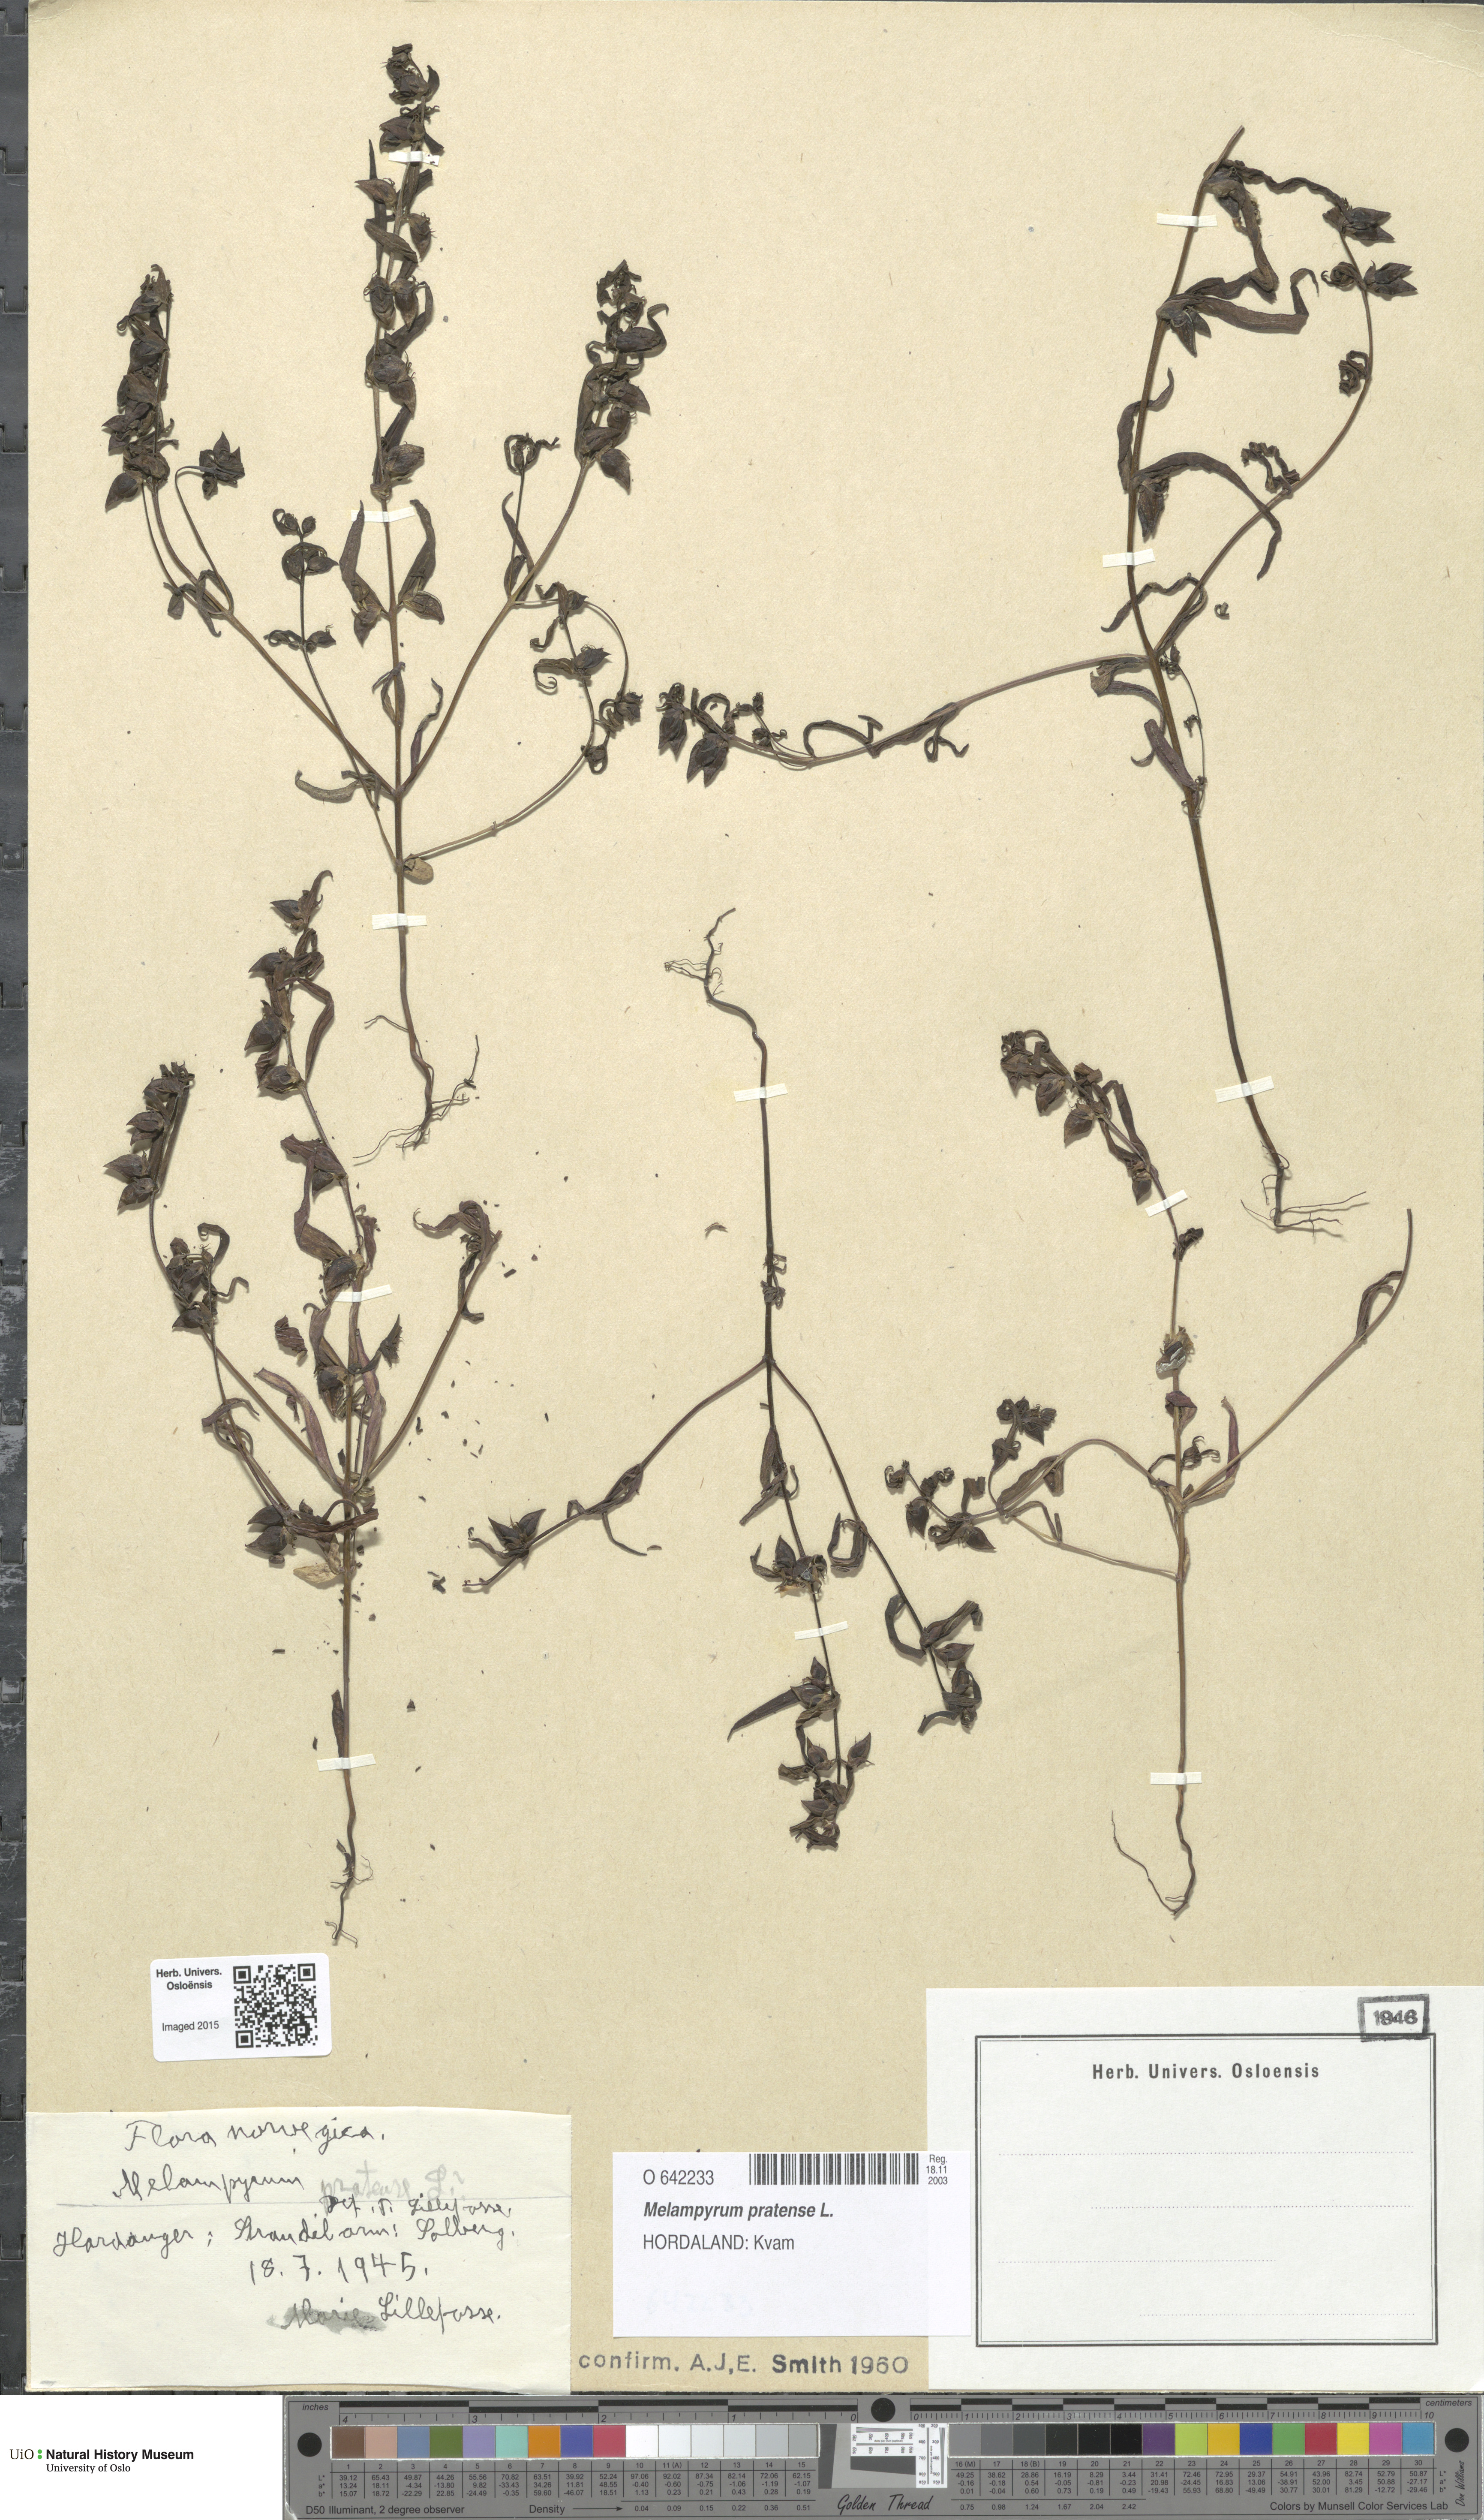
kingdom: Plantae
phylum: Tracheophyta
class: Magnoliopsida
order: Lamiales
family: Orobanchaceae
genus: Melampyrum
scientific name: Melampyrum pratense
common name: Common cow-wheat
